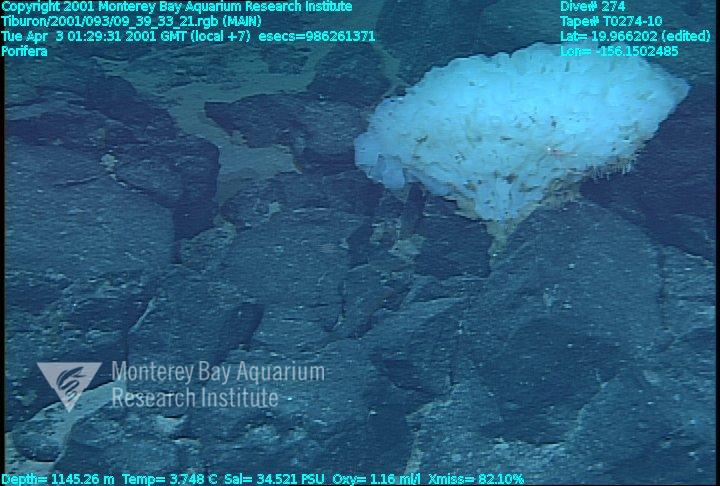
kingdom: Animalia
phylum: Porifera
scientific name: Porifera
